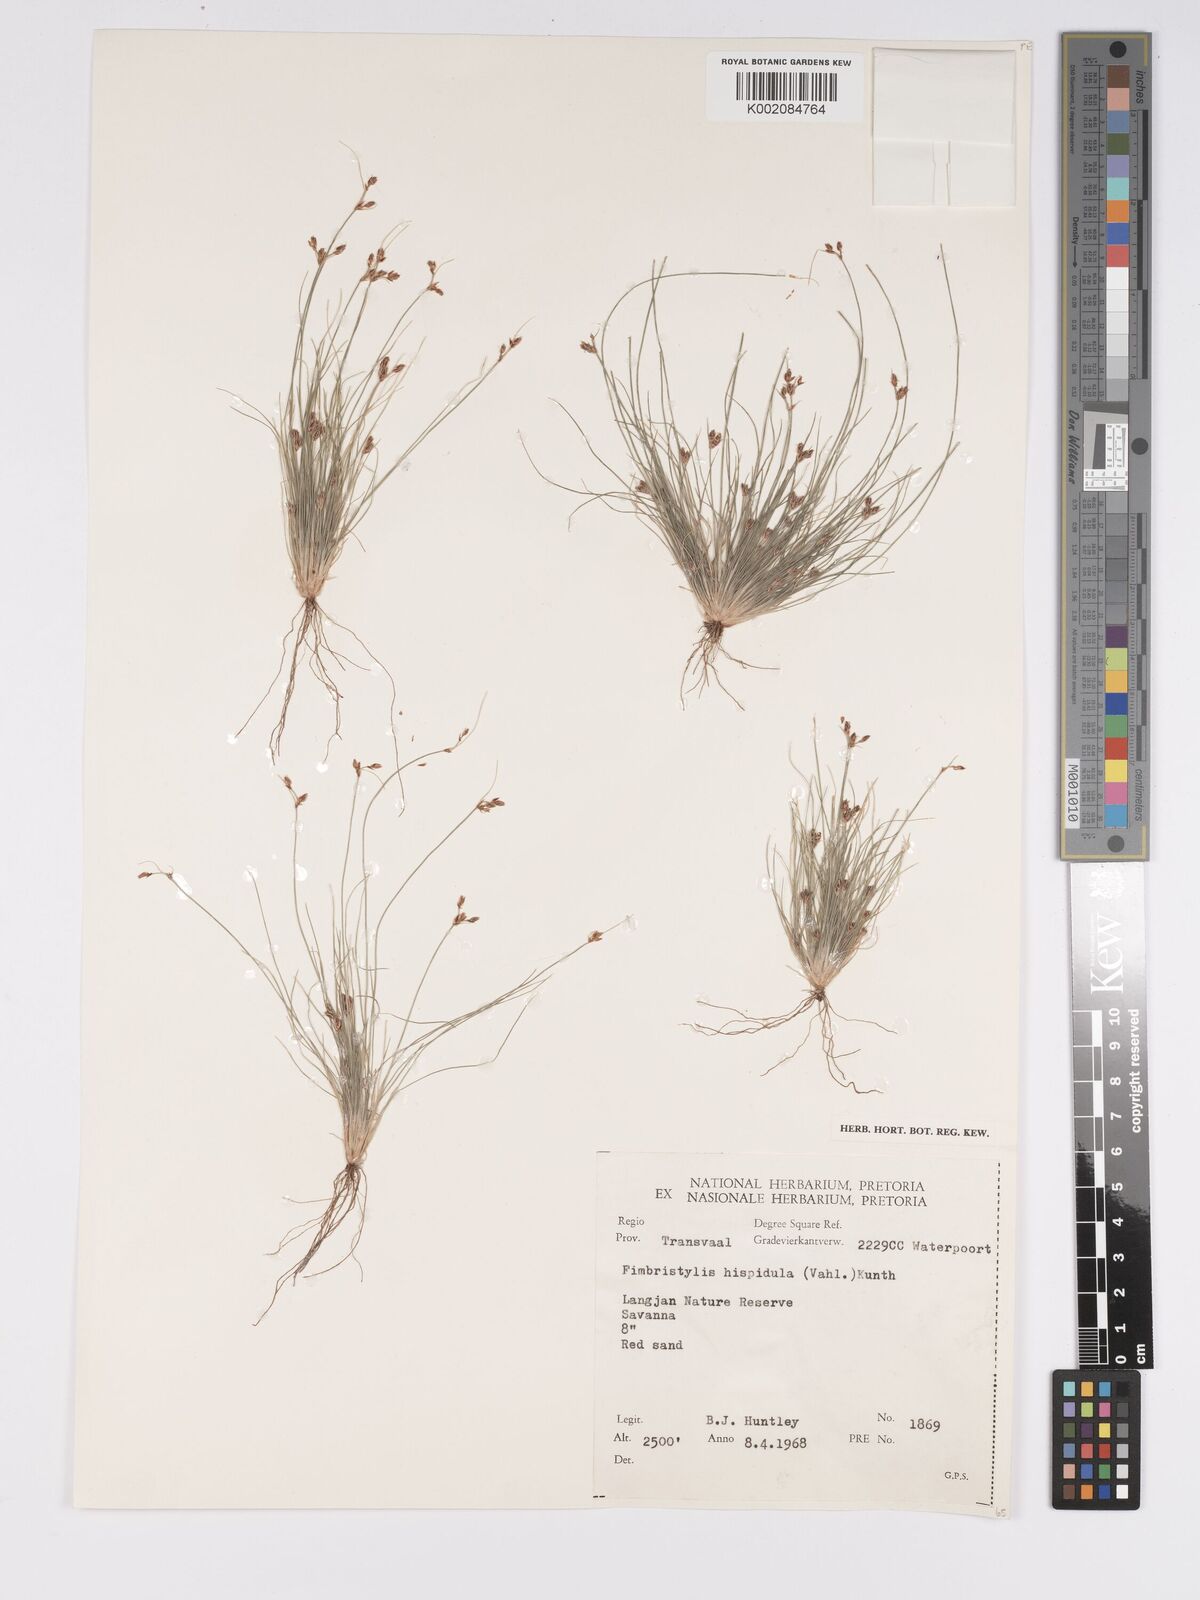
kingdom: Plantae
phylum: Tracheophyta
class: Liliopsida
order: Poales
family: Cyperaceae
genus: Bulbostylis
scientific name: Bulbostylis hispidula
